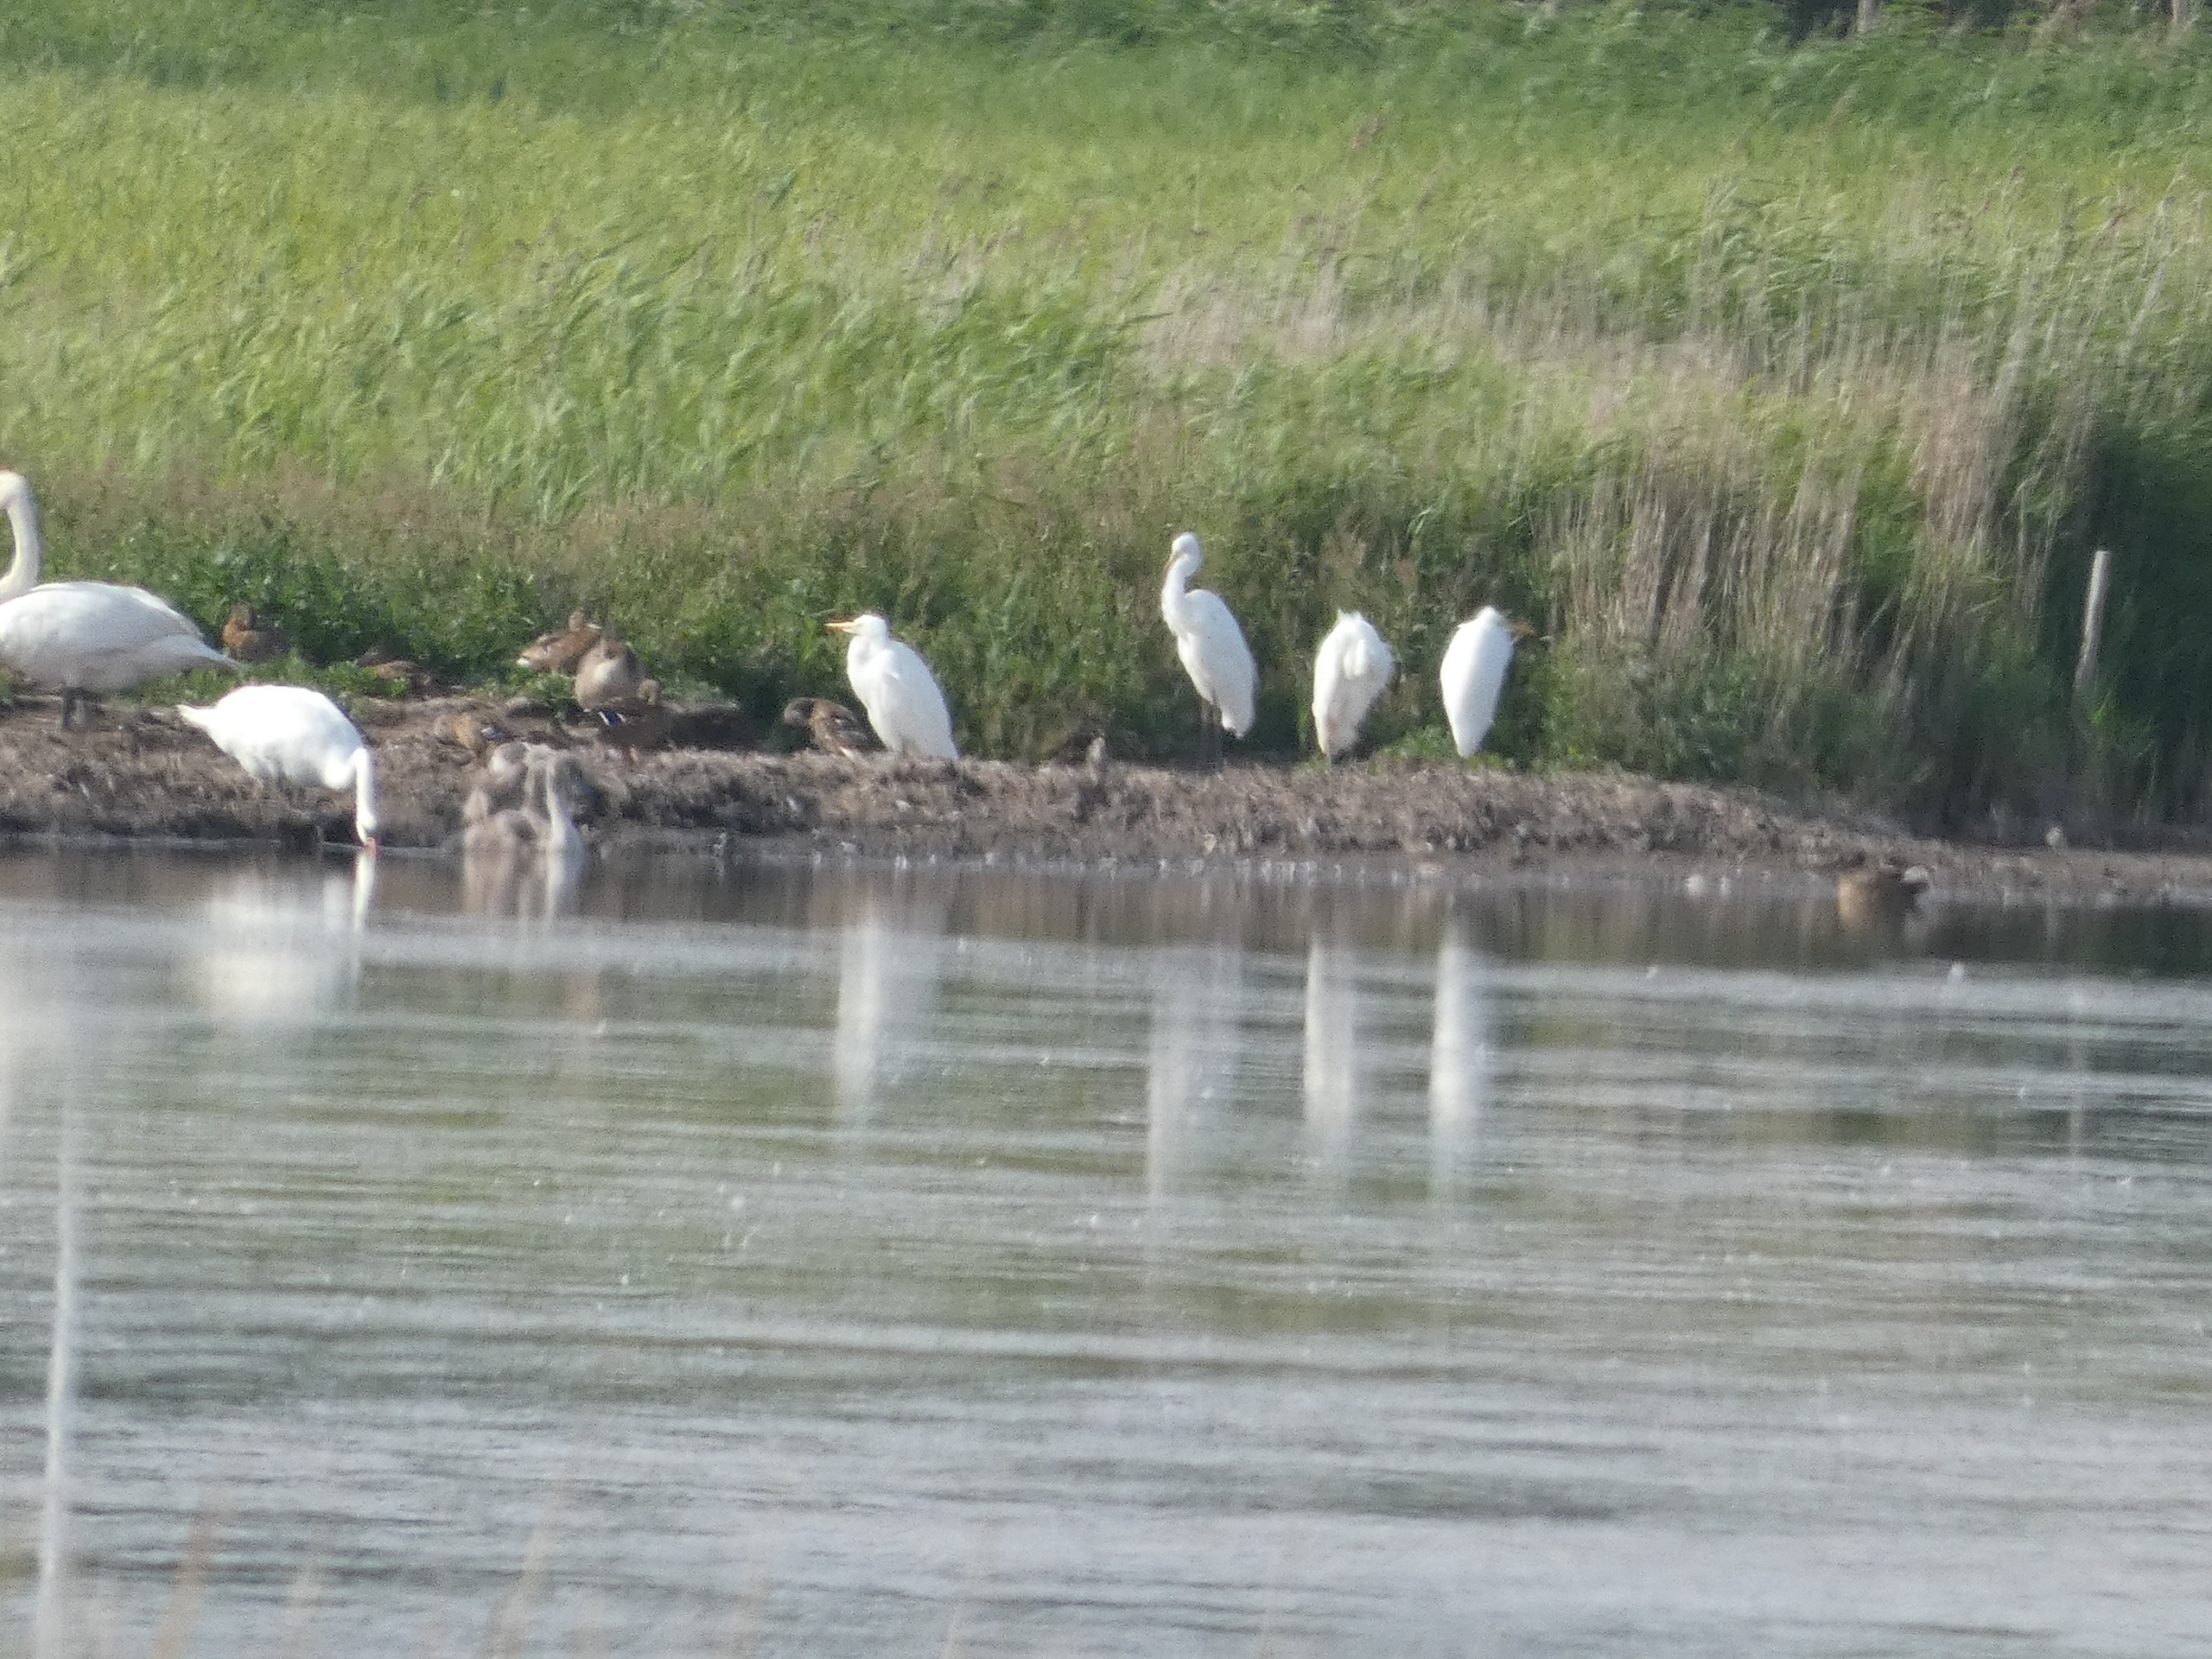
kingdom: Animalia
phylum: Chordata
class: Aves
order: Anseriformes
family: Anatidae
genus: Anas
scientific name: Anas platyrhynchos
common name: Gråand
